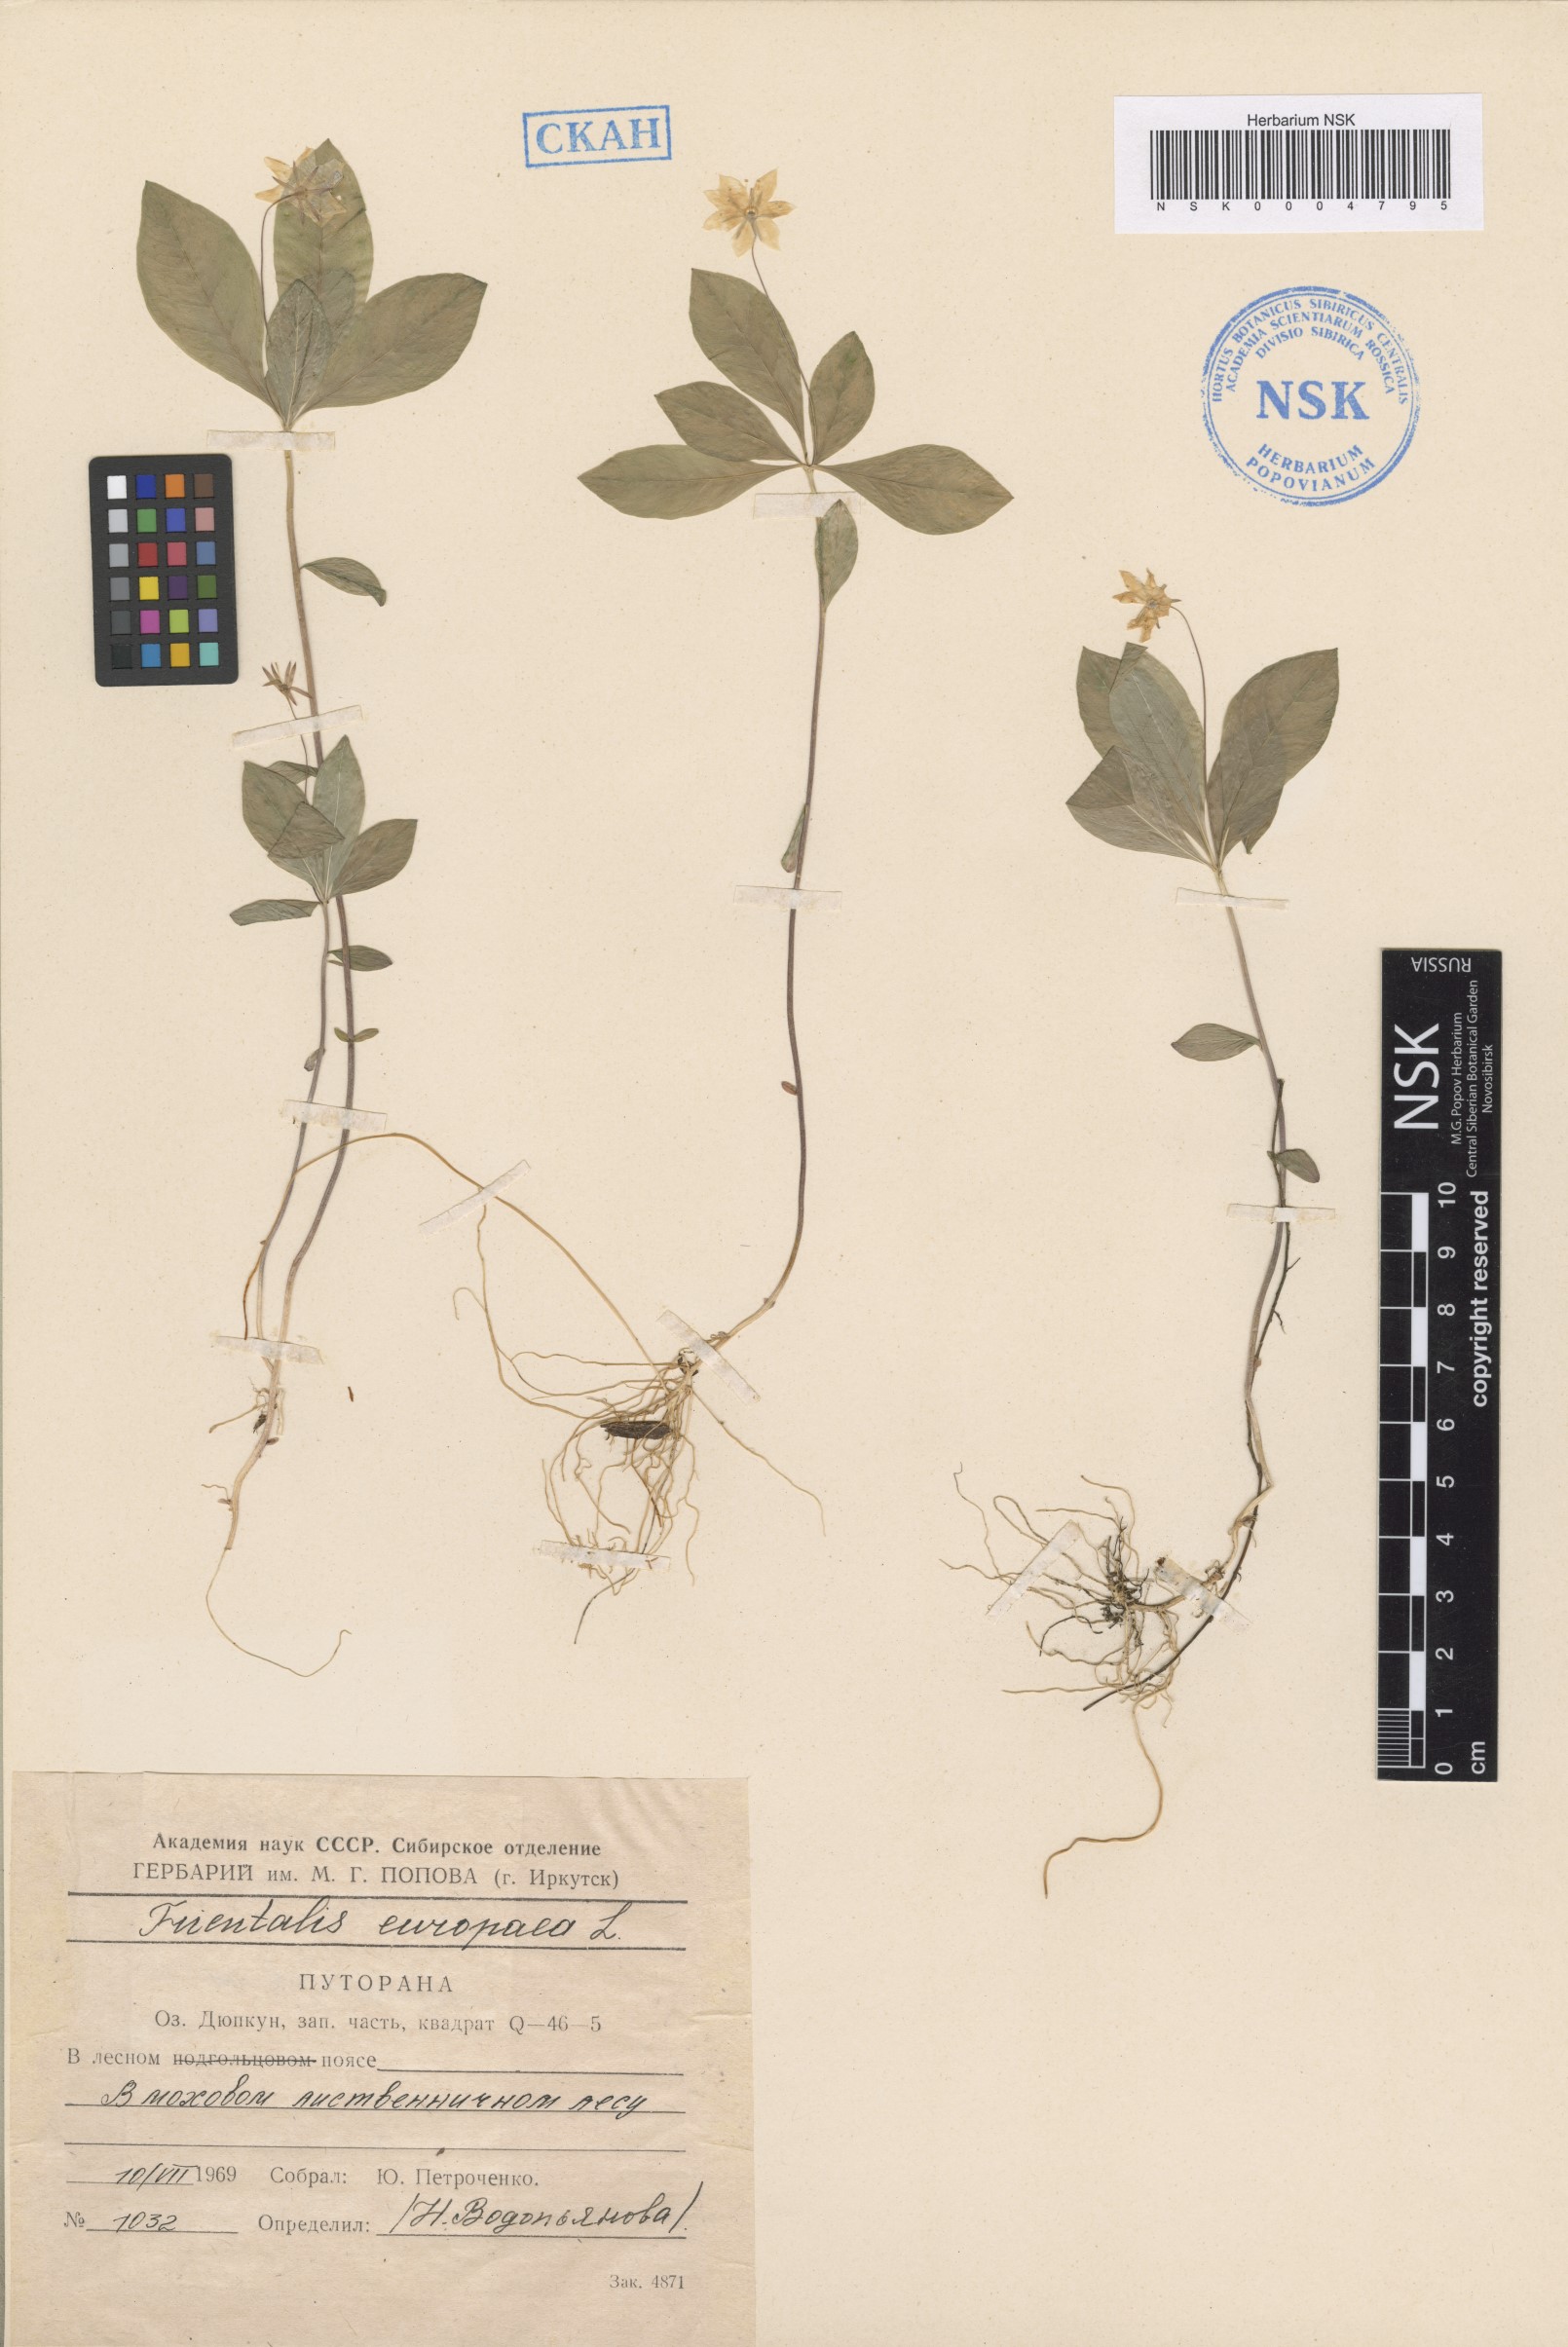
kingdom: Plantae
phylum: Tracheophyta
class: Magnoliopsida
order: Ericales
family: Primulaceae
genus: Lysimachia
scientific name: Lysimachia europaea
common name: Arctic starflower
